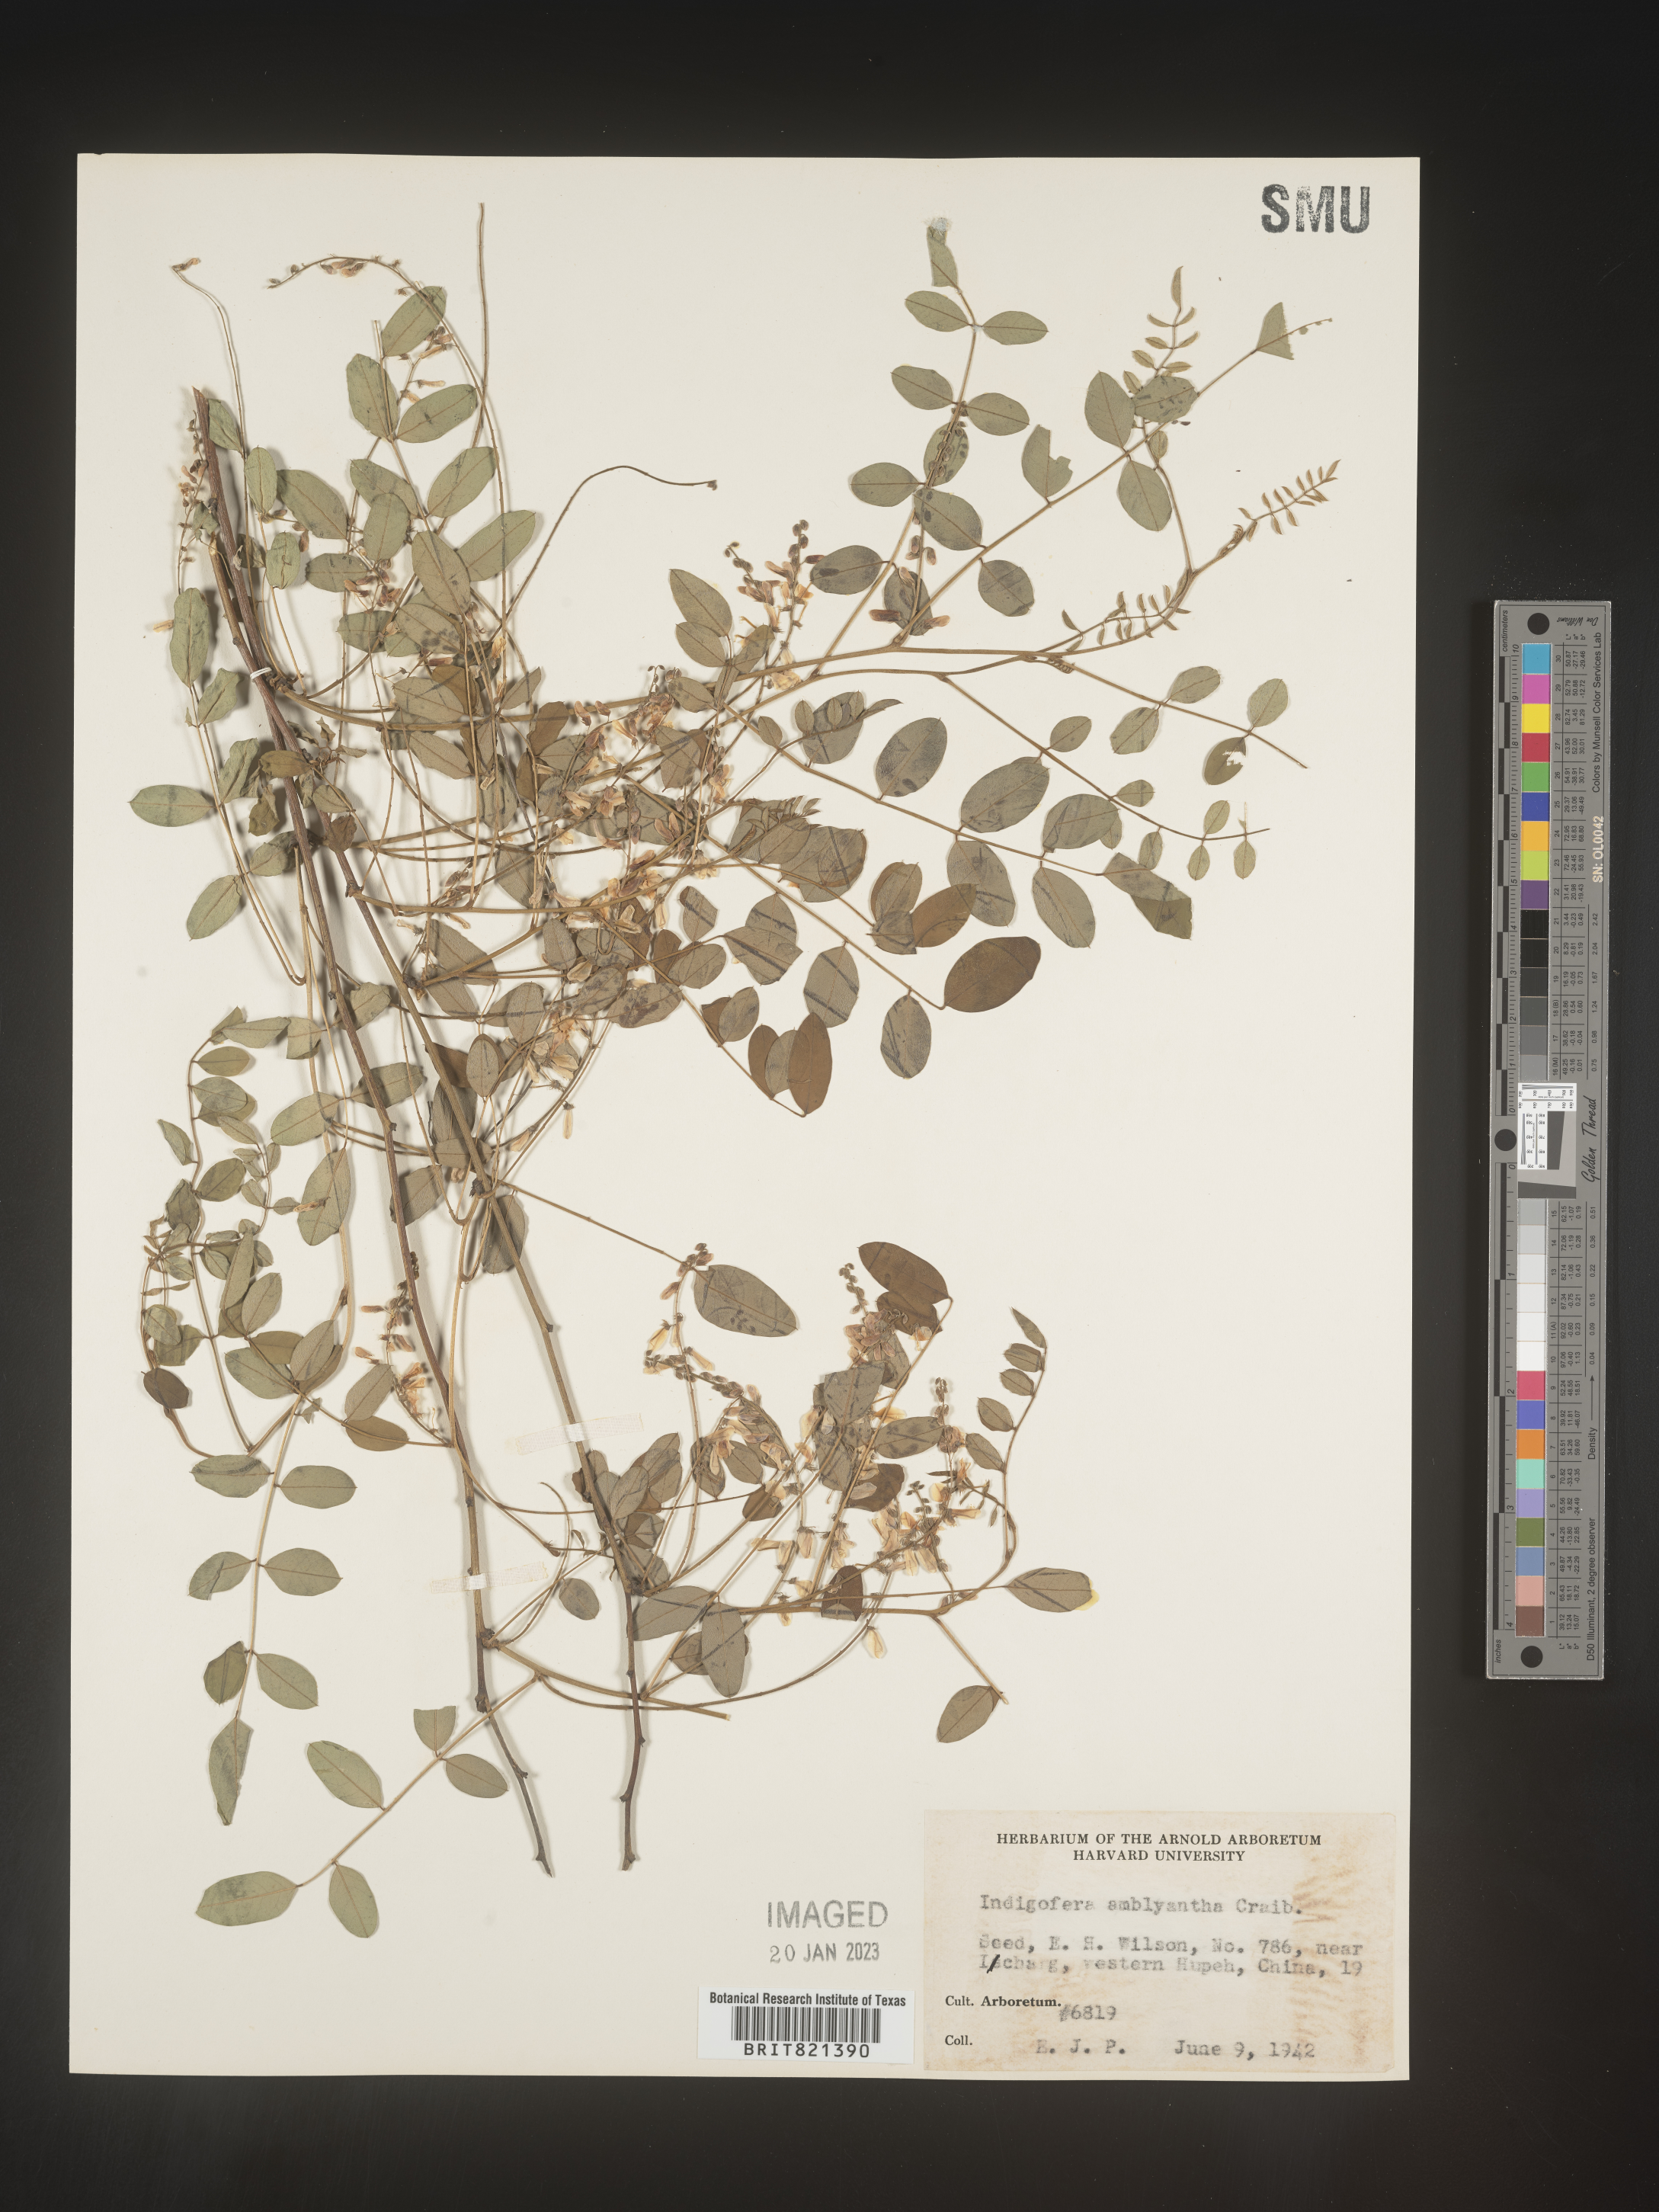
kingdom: Plantae
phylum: Tracheophyta
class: Magnoliopsida
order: Fabales
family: Fabaceae
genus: Indigofera
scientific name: Indigofera
